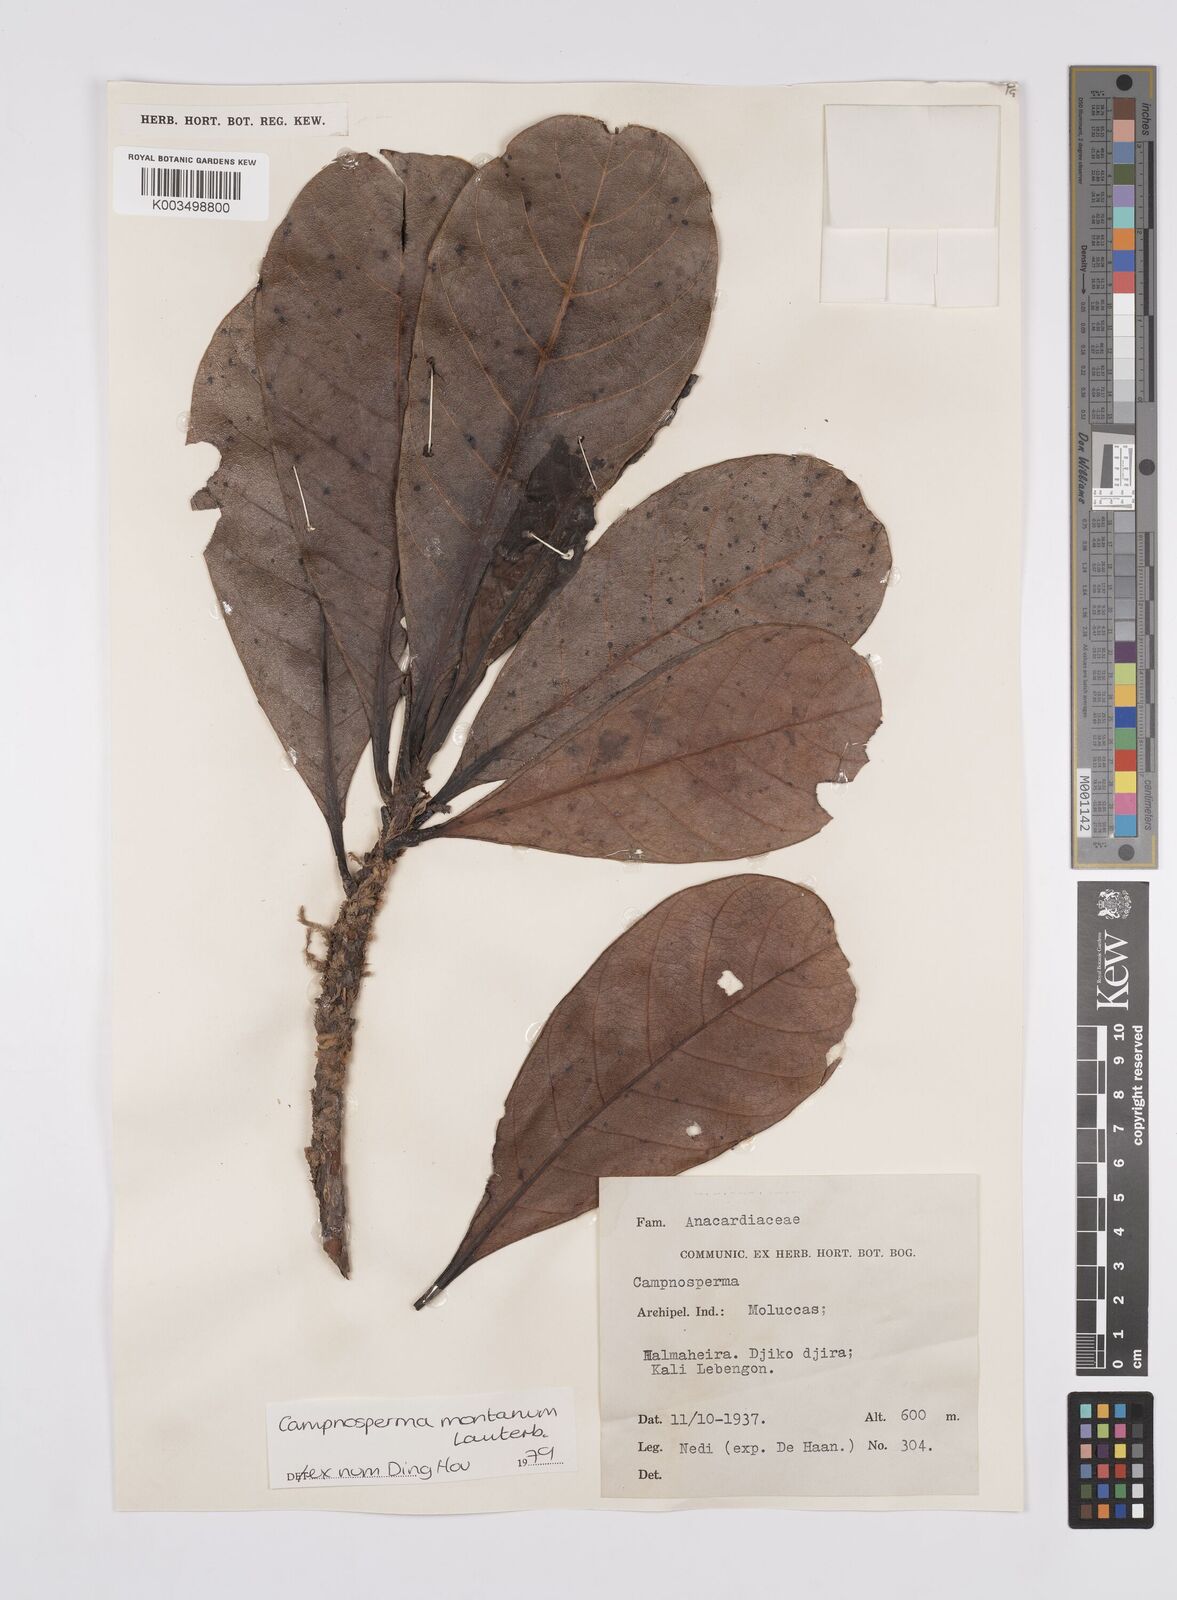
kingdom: Plantae
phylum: Tracheophyta
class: Magnoliopsida
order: Sapindales
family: Anacardiaceae
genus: Campnosperma
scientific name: Campnosperma montanum
